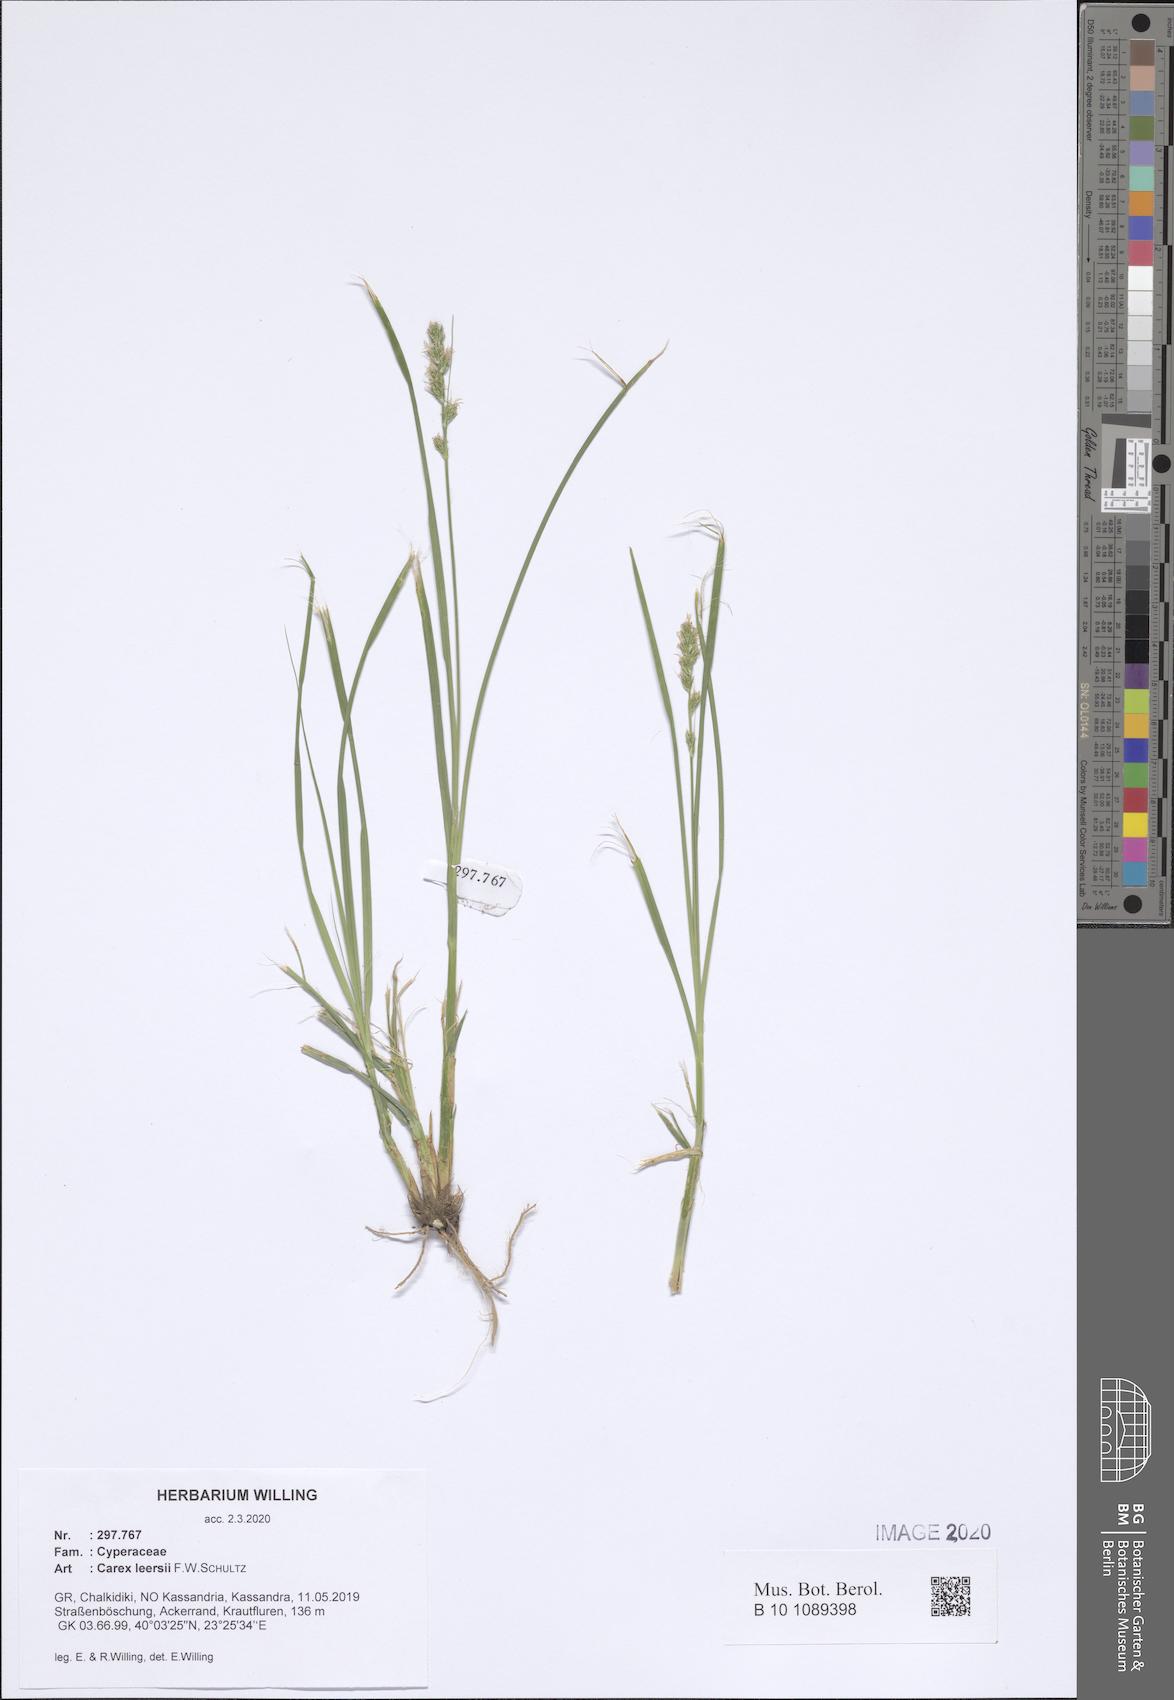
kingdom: Plantae
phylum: Tracheophyta
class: Liliopsida
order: Poales
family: Cyperaceae
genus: Carex
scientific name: Carex leersii
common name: Leers' sedge
